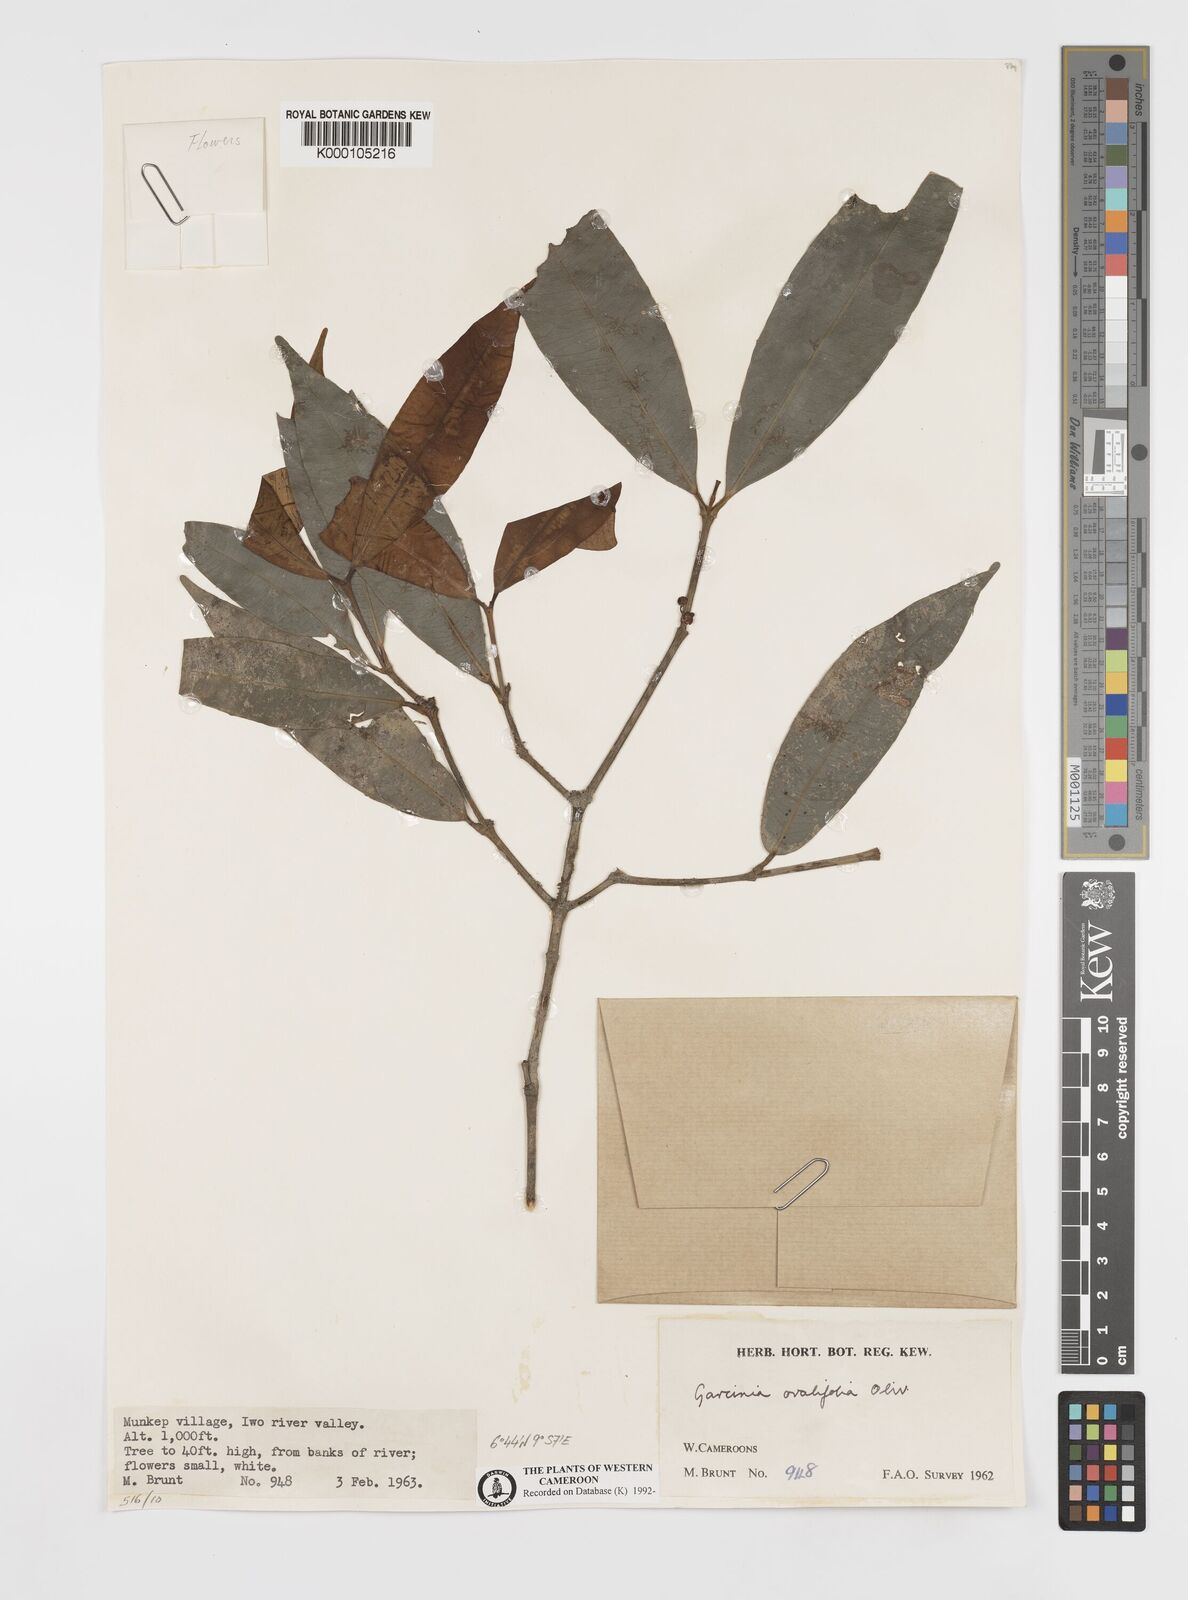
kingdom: Plantae
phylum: Tracheophyta
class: Magnoliopsida
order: Malpighiales
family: Clusiaceae
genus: Garcinia
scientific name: Garcinia ovalifolia
